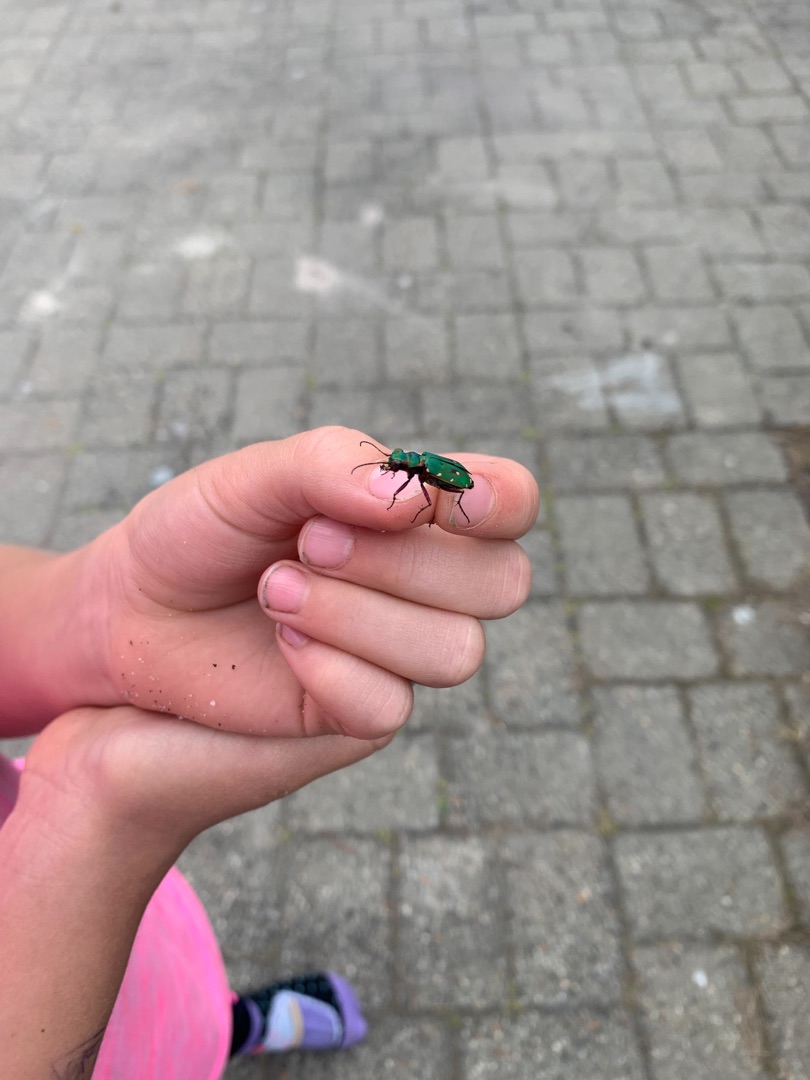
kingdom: Animalia
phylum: Arthropoda
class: Insecta
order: Coleoptera
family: Carabidae
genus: Cicindela
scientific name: Cicindela campestris
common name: Grøn sandspringer
